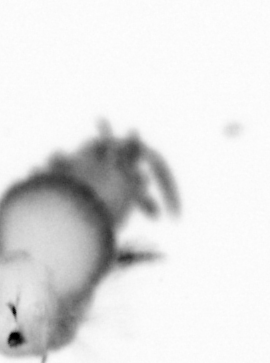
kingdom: Animalia
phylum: Annelida
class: Polychaeta
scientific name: Polychaeta
